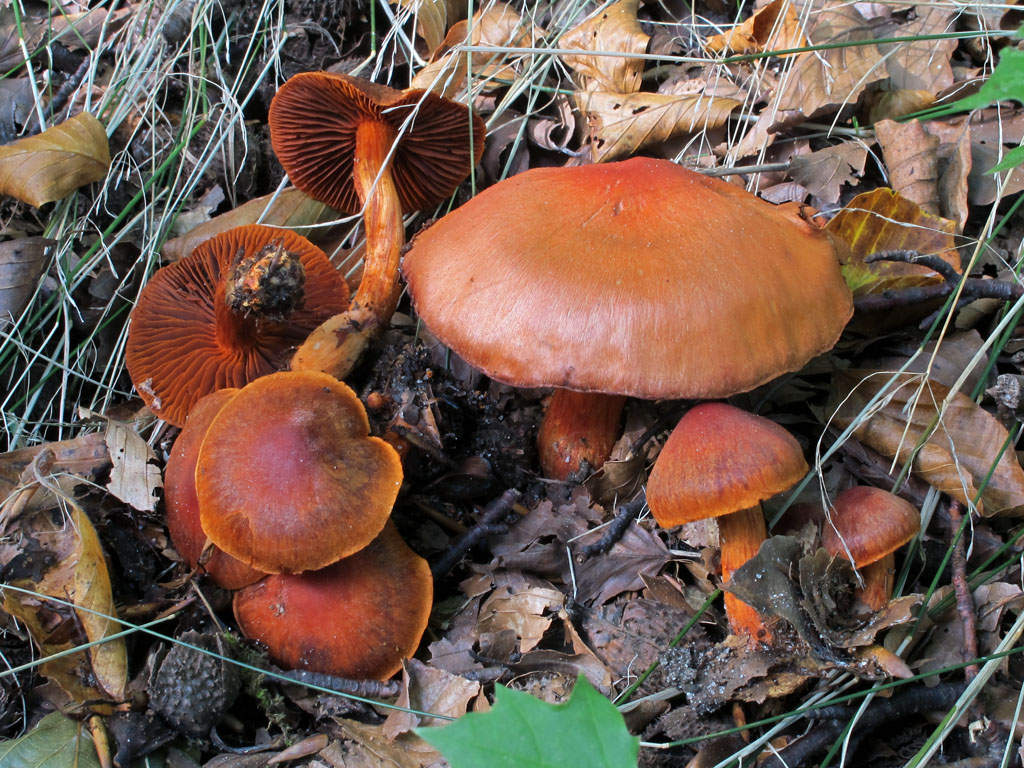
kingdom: Fungi
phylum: Basidiomycota
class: Agaricomycetes
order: Agaricales
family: Cortinariaceae
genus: Cortinarius
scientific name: Cortinarius cinnabarinus
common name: cinnober-slørhat
